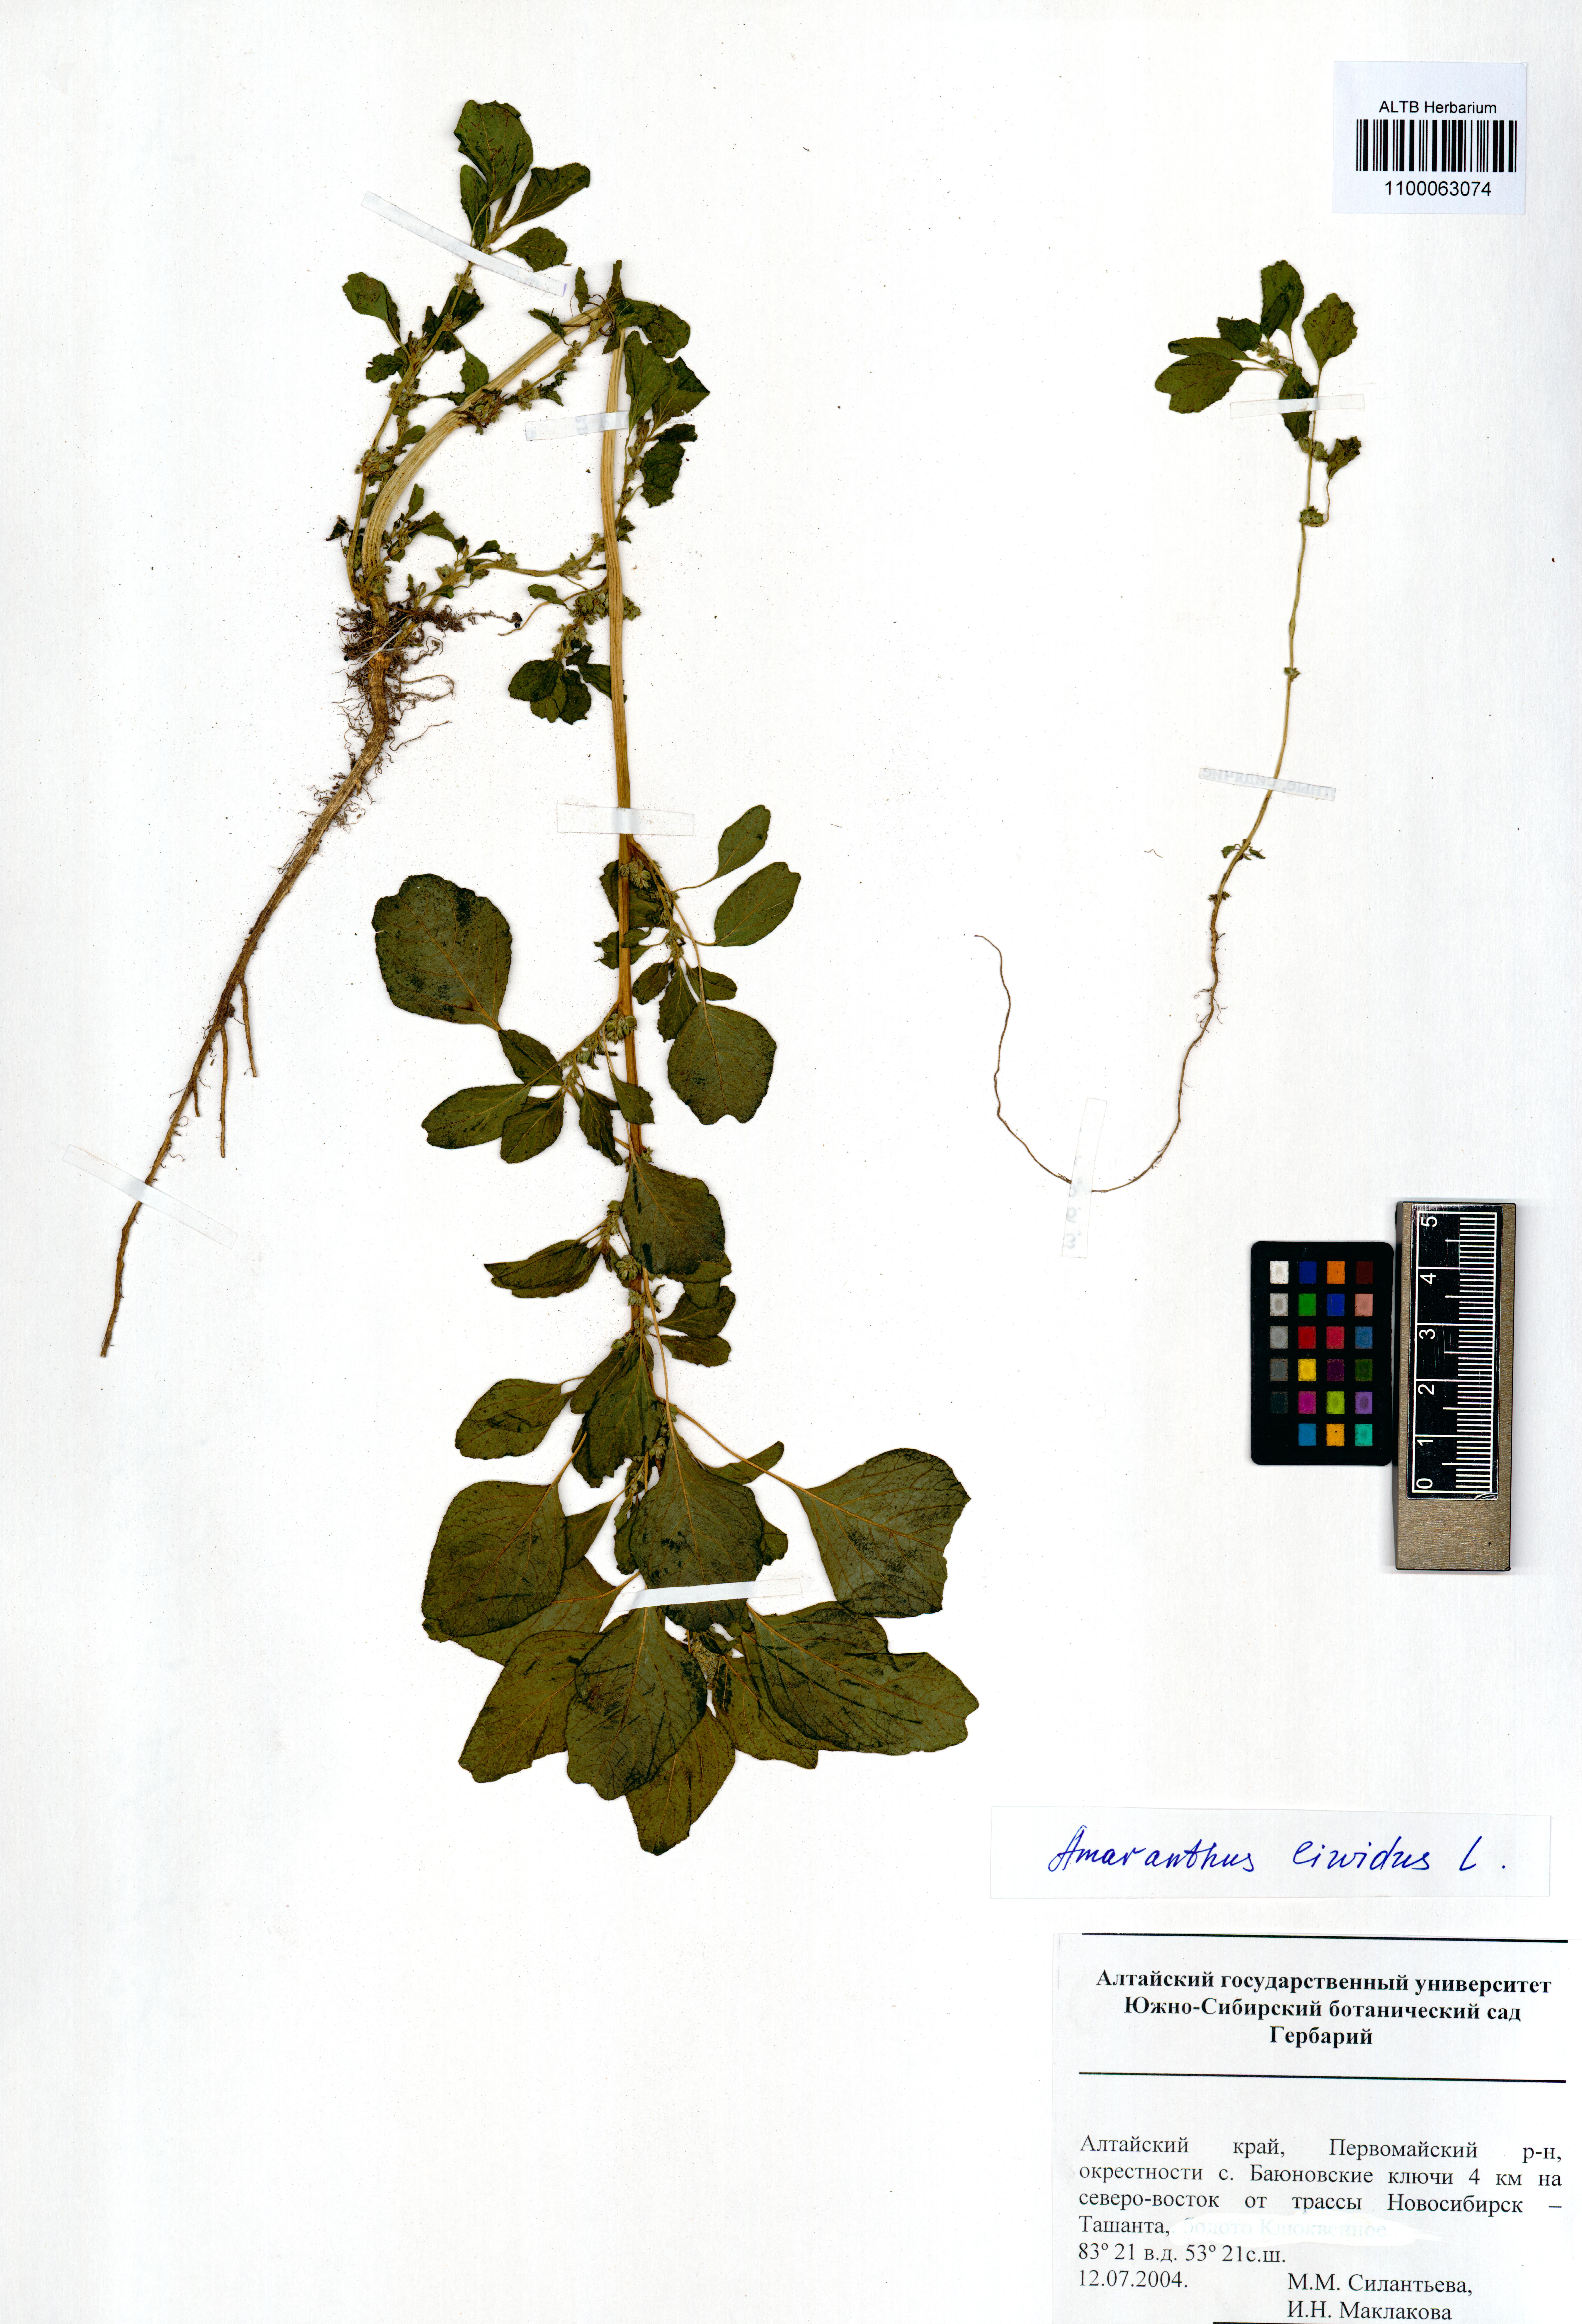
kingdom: Plantae
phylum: Tracheophyta
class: Magnoliopsida
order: Caryophyllales
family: Amaranthaceae
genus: Amaranthus
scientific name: Amaranthus blitum
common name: Purple amaranth
